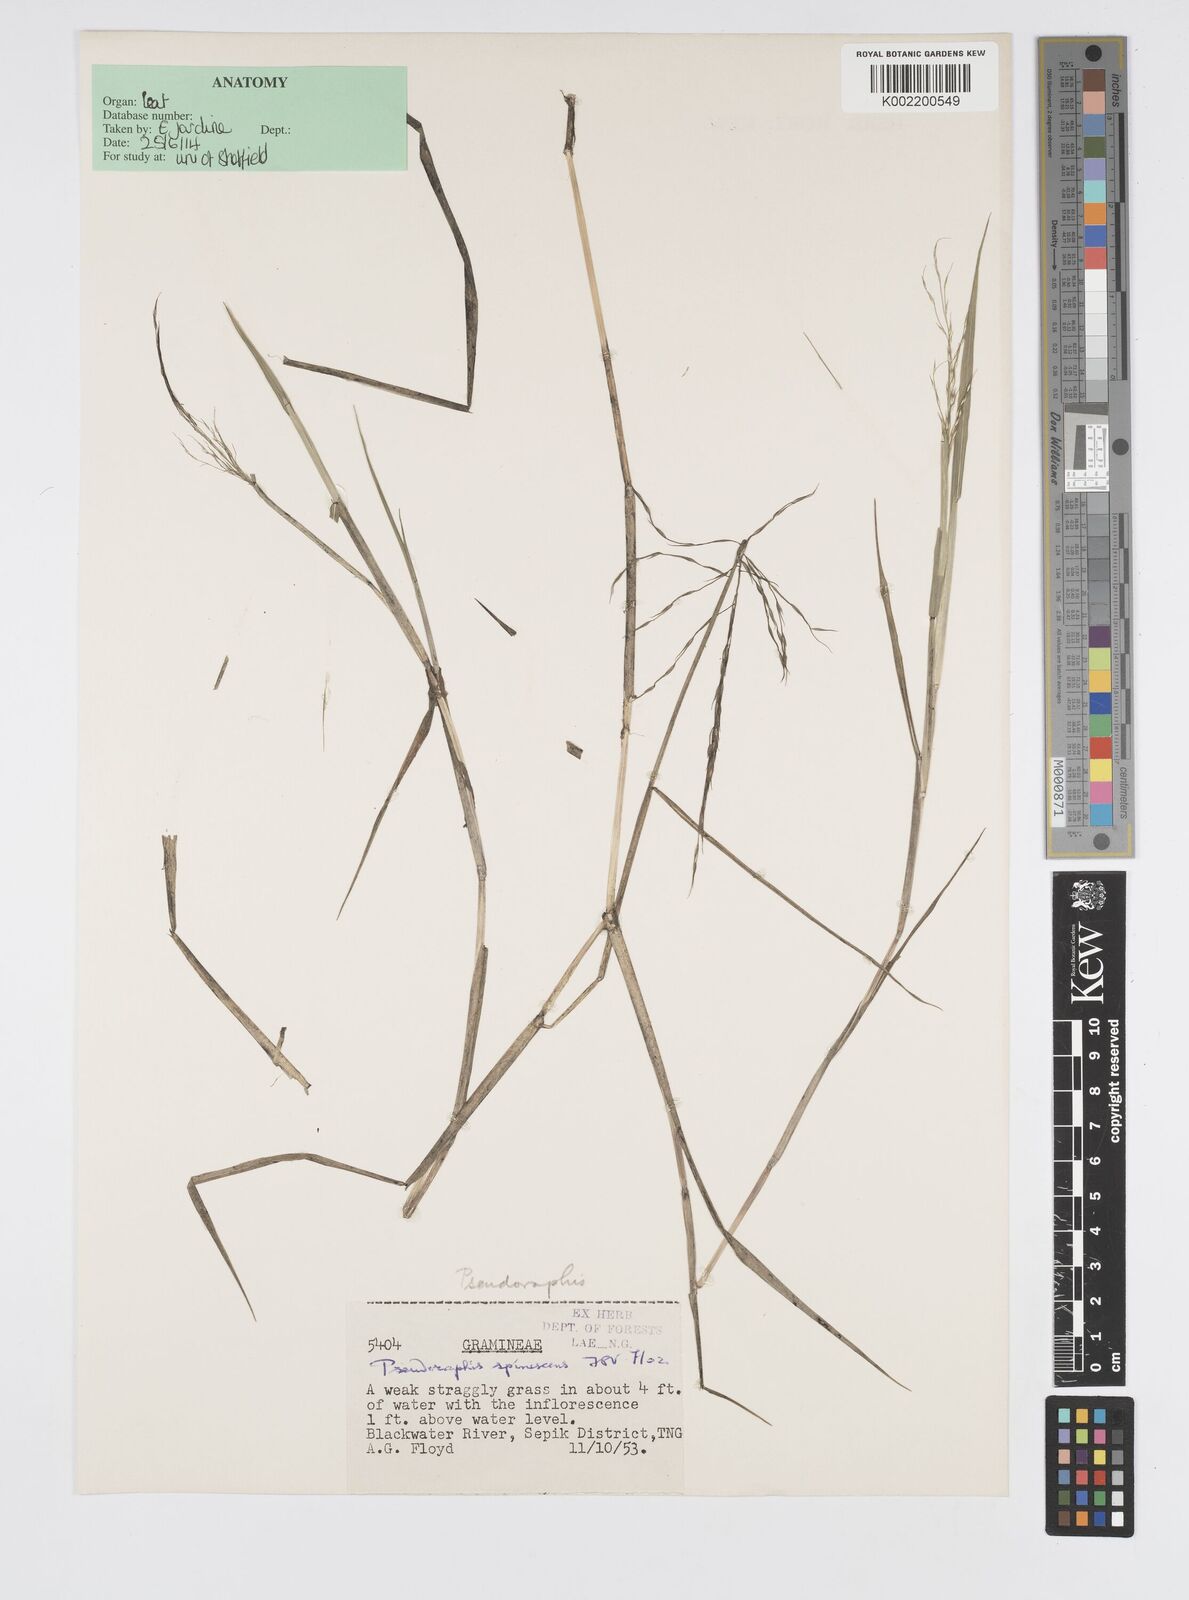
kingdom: Plantae
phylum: Tracheophyta
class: Liliopsida
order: Poales
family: Poaceae
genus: Pseudoraphis
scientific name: Pseudoraphis spinescens
